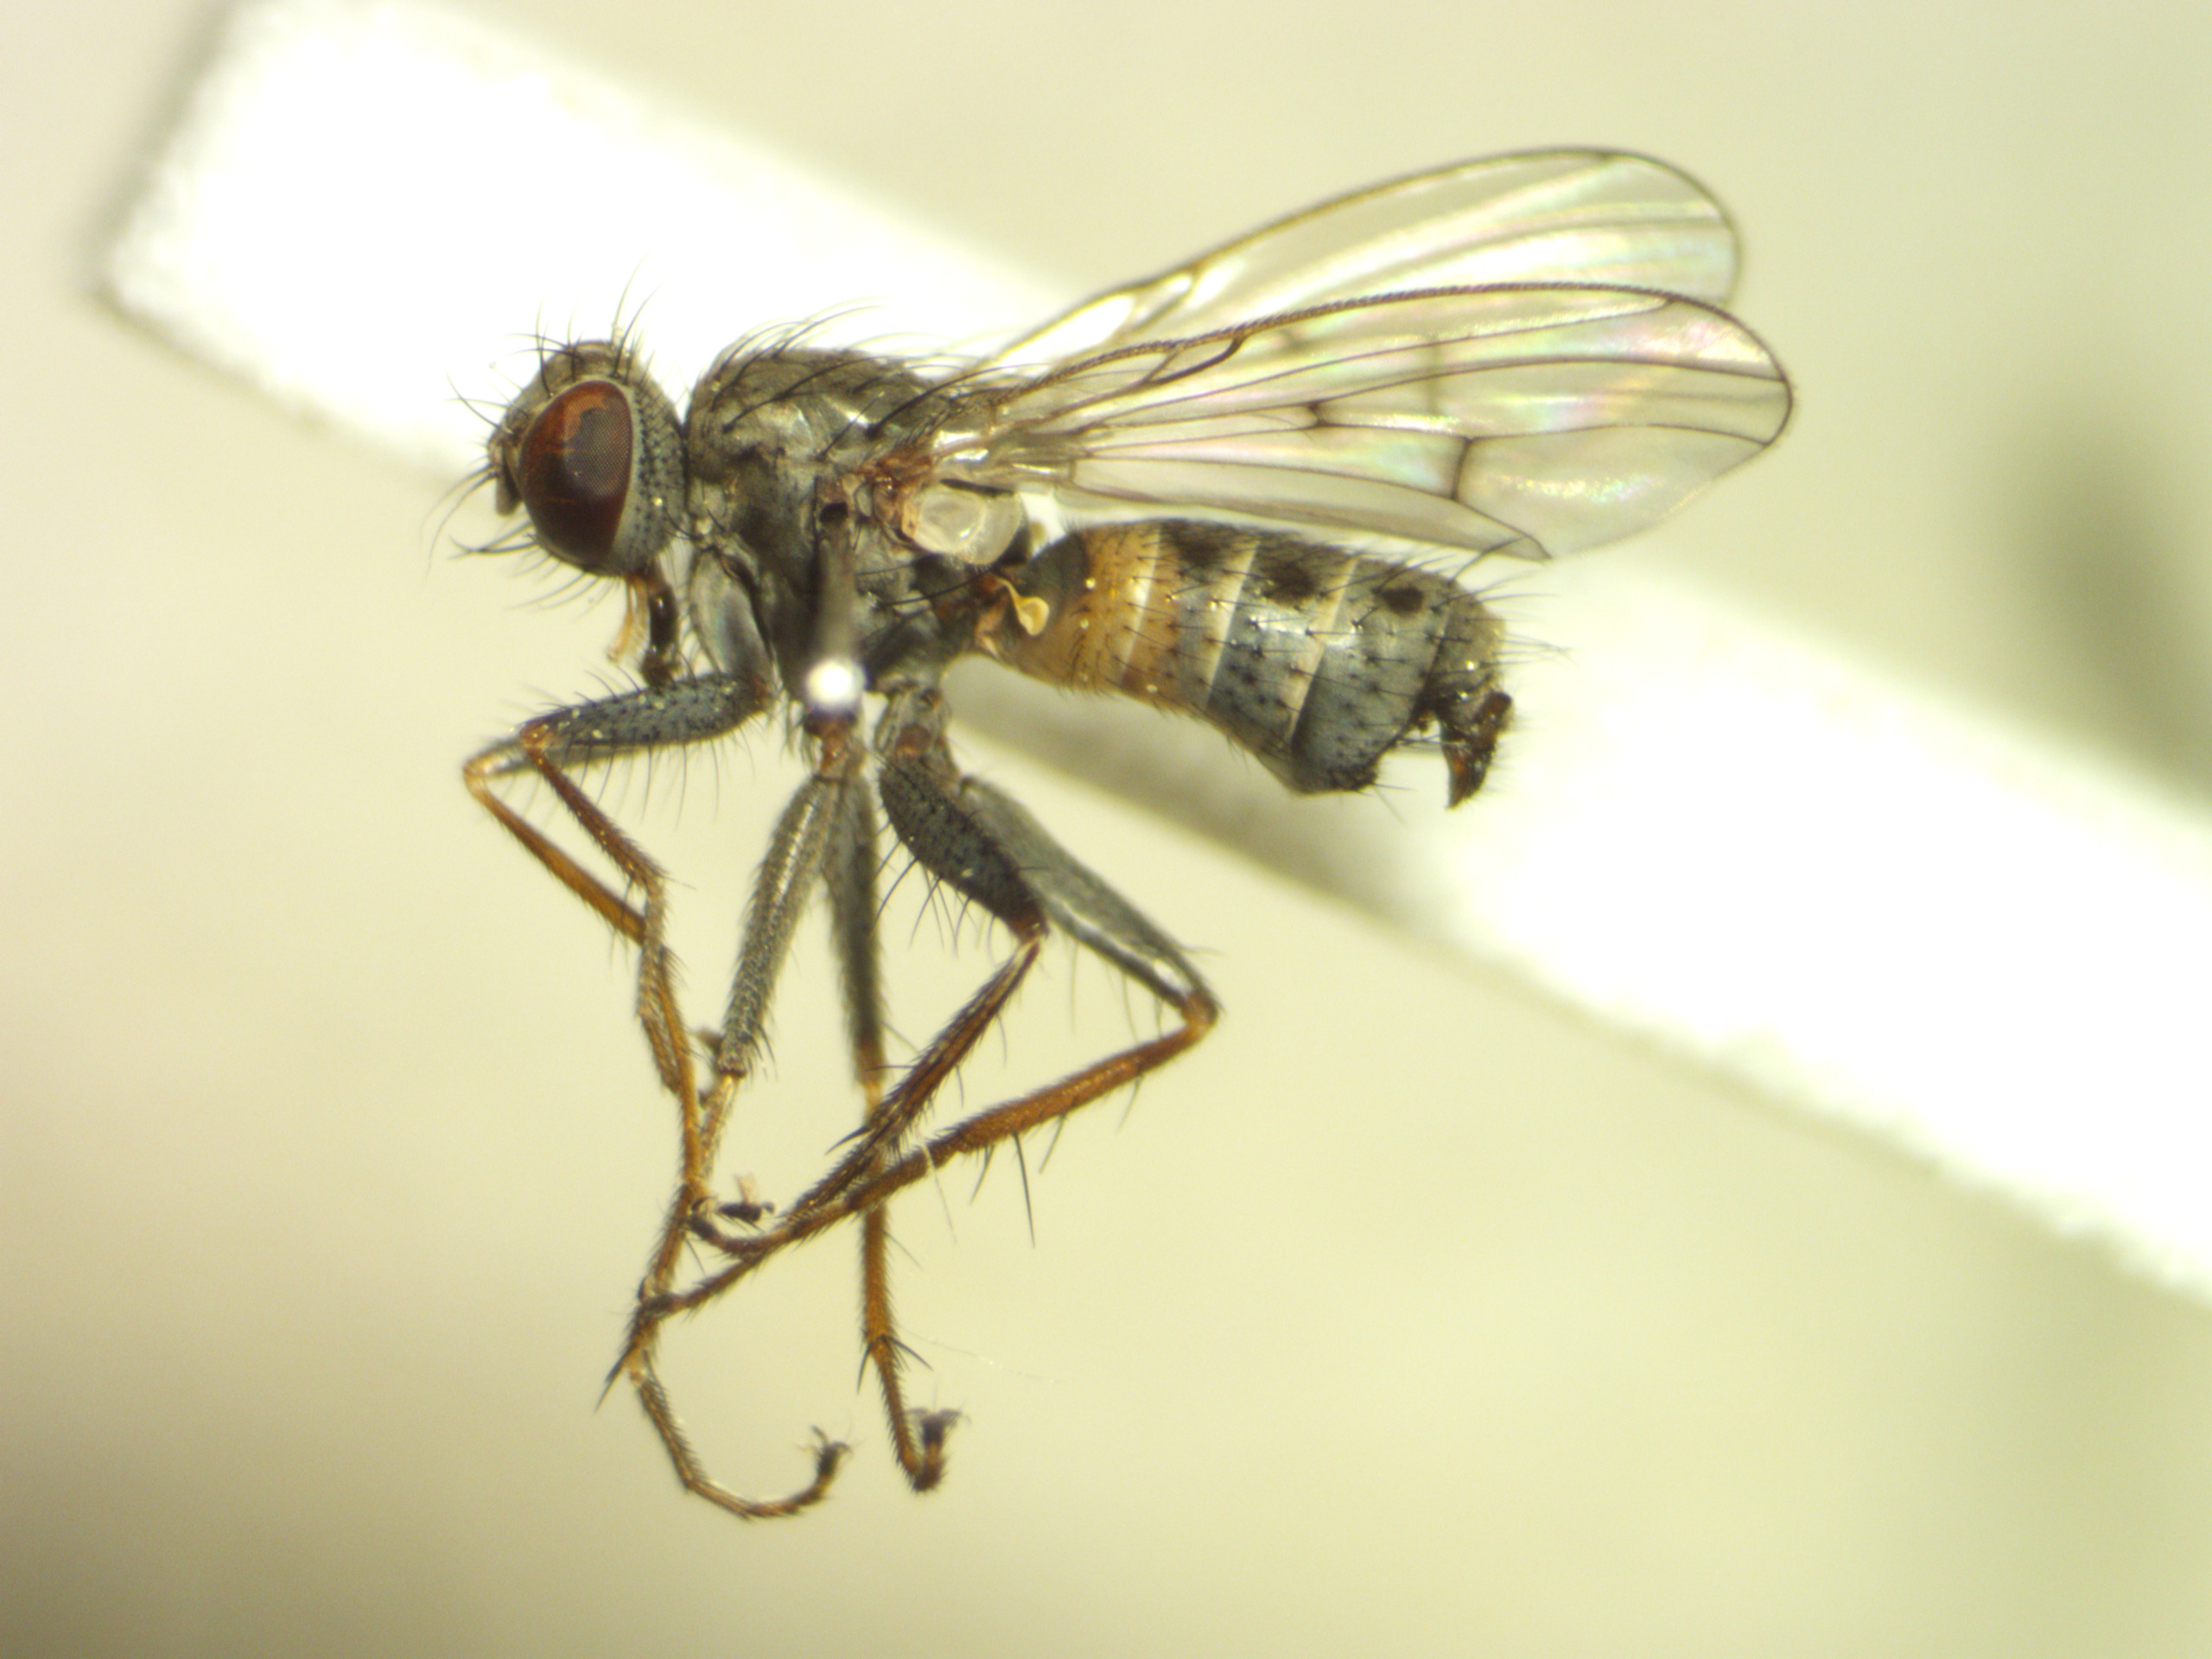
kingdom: Animalia
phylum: Arthropoda
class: Insecta
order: Diptera
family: Muscidae
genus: Caricea
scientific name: Caricea falculata
